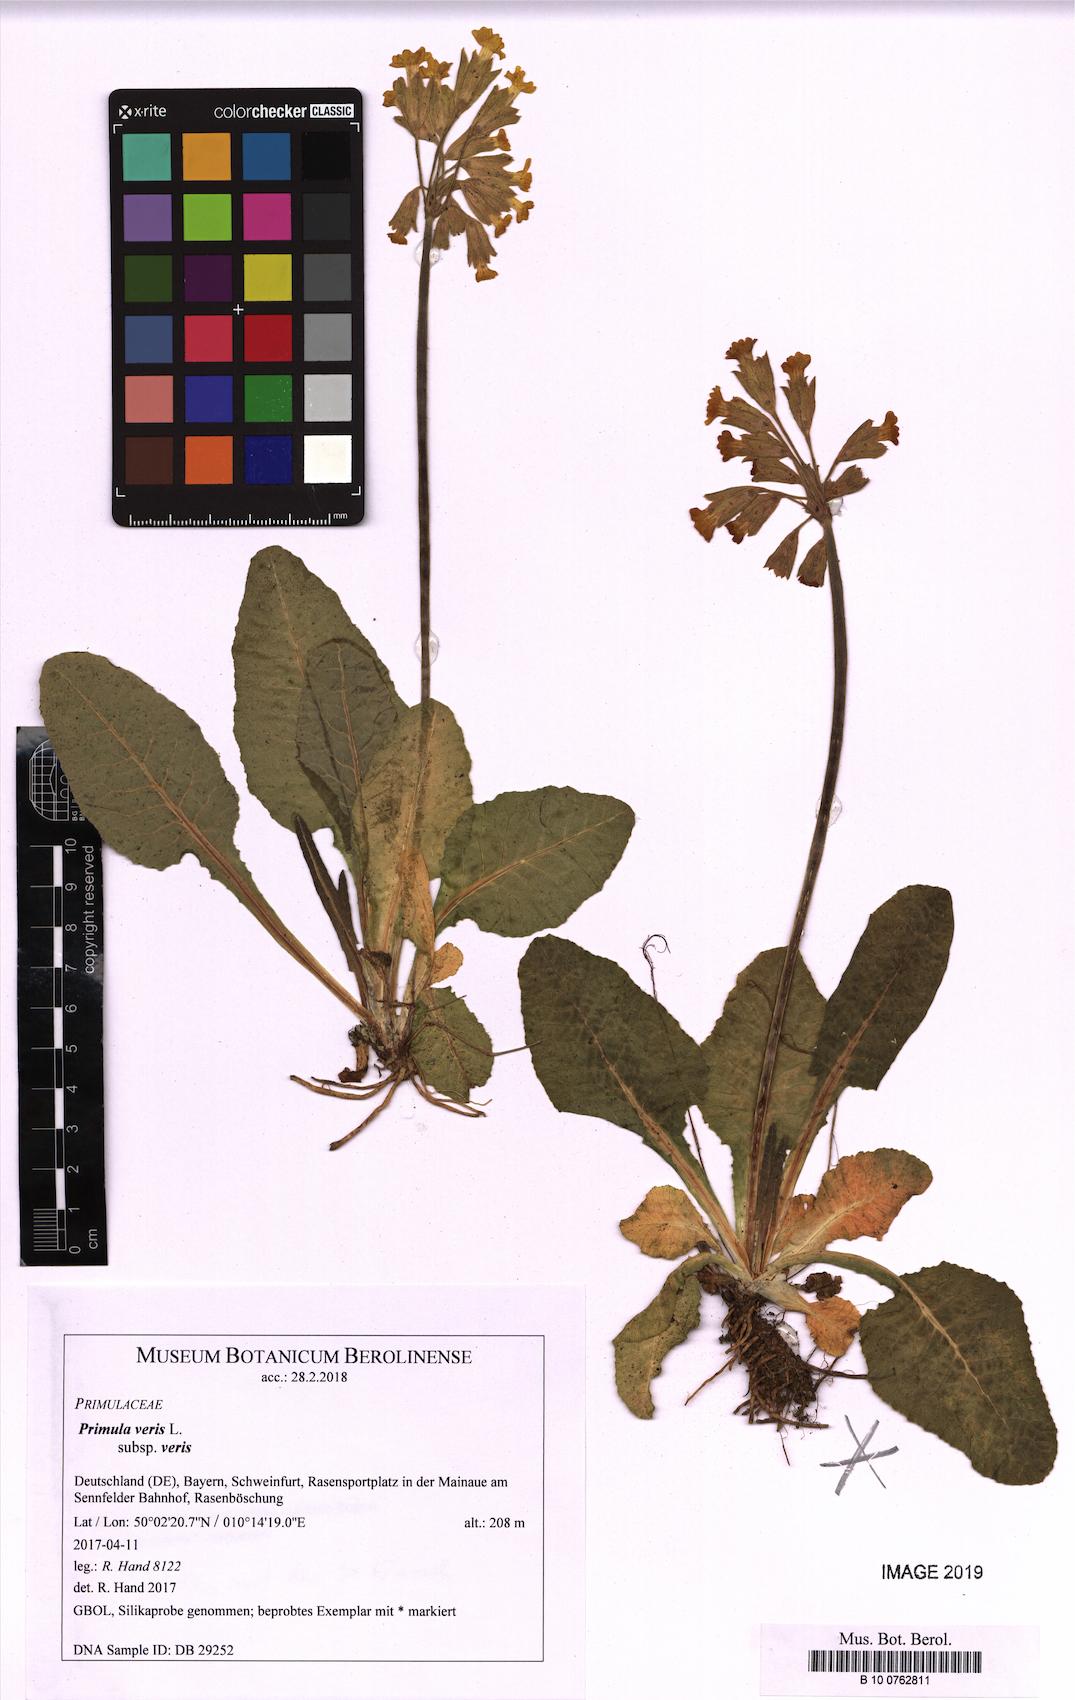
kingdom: Plantae
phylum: Tracheophyta
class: Magnoliopsida
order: Ericales
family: Primulaceae
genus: Primula
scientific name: Primula veris
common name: Cowslip
